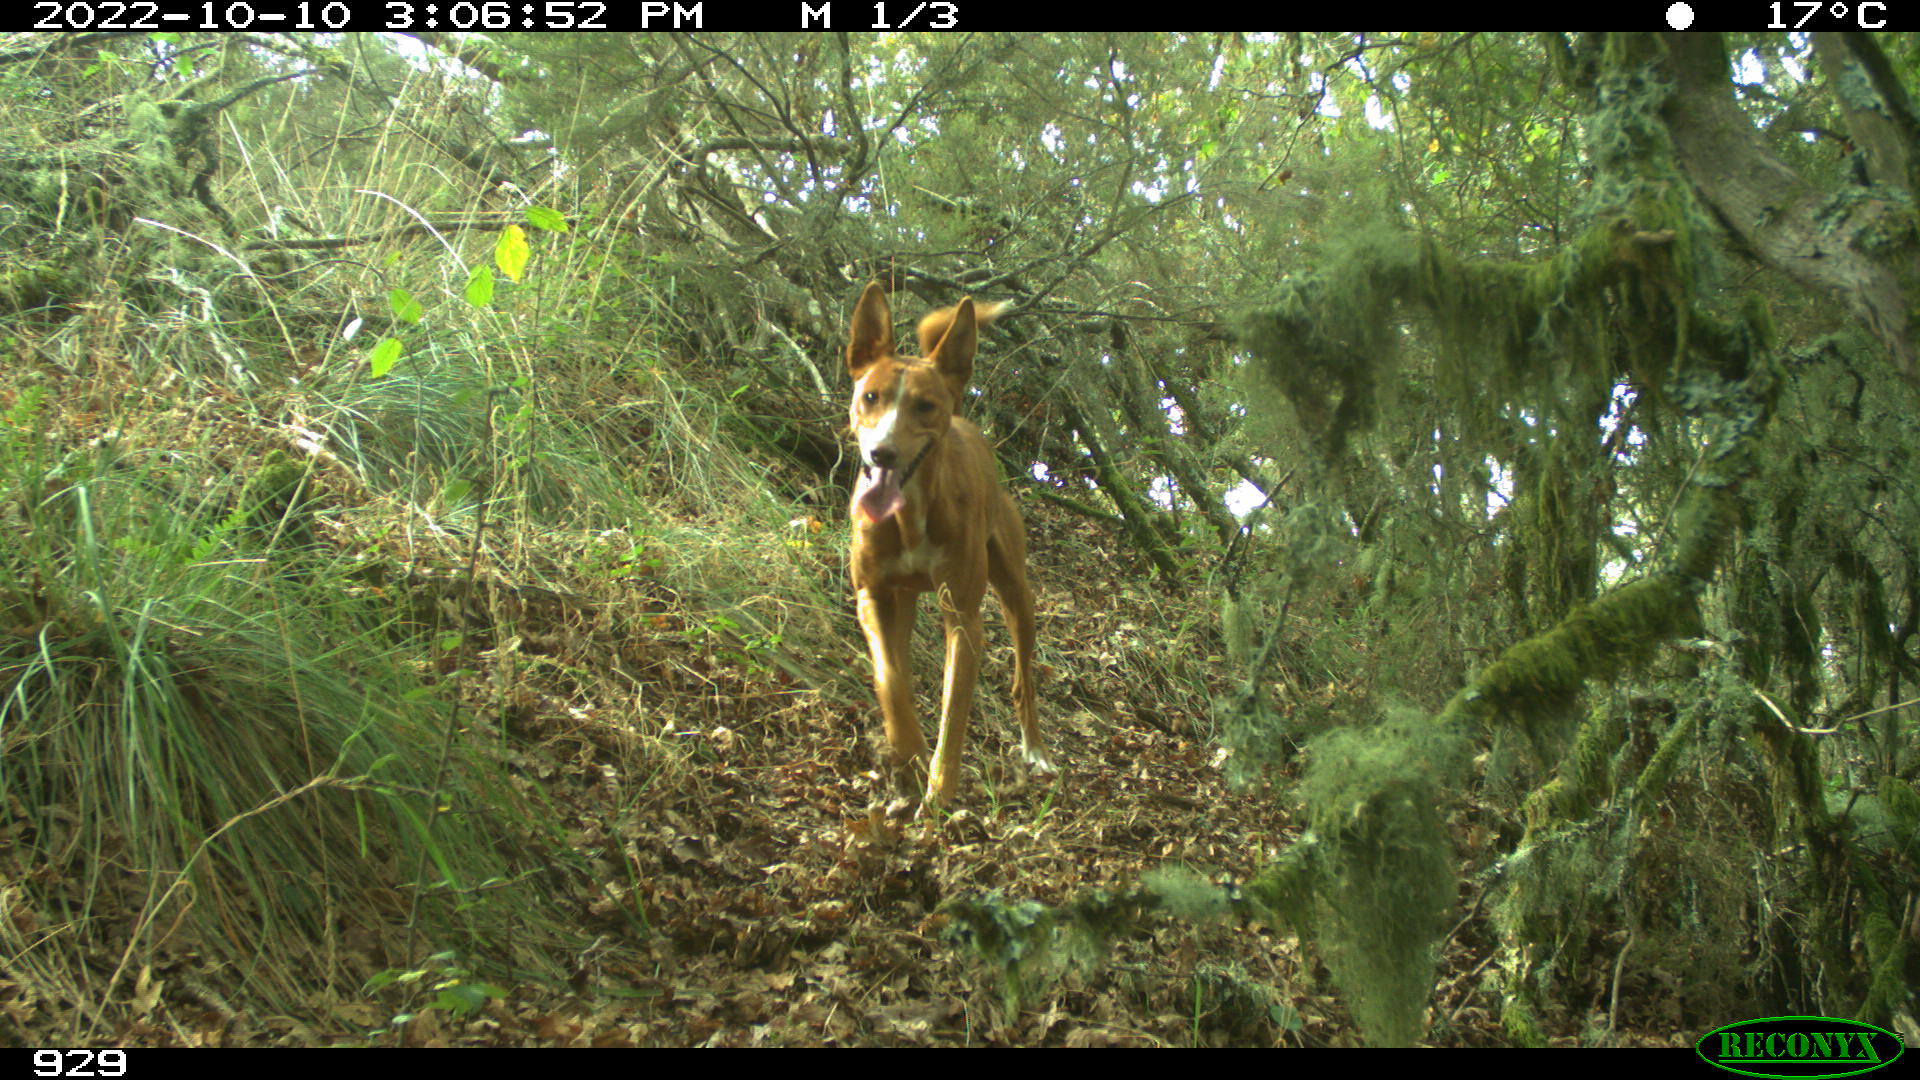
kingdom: Animalia
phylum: Chordata
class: Mammalia
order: Carnivora
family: Canidae
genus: Canis
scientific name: Canis lupus
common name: Gray wolf
